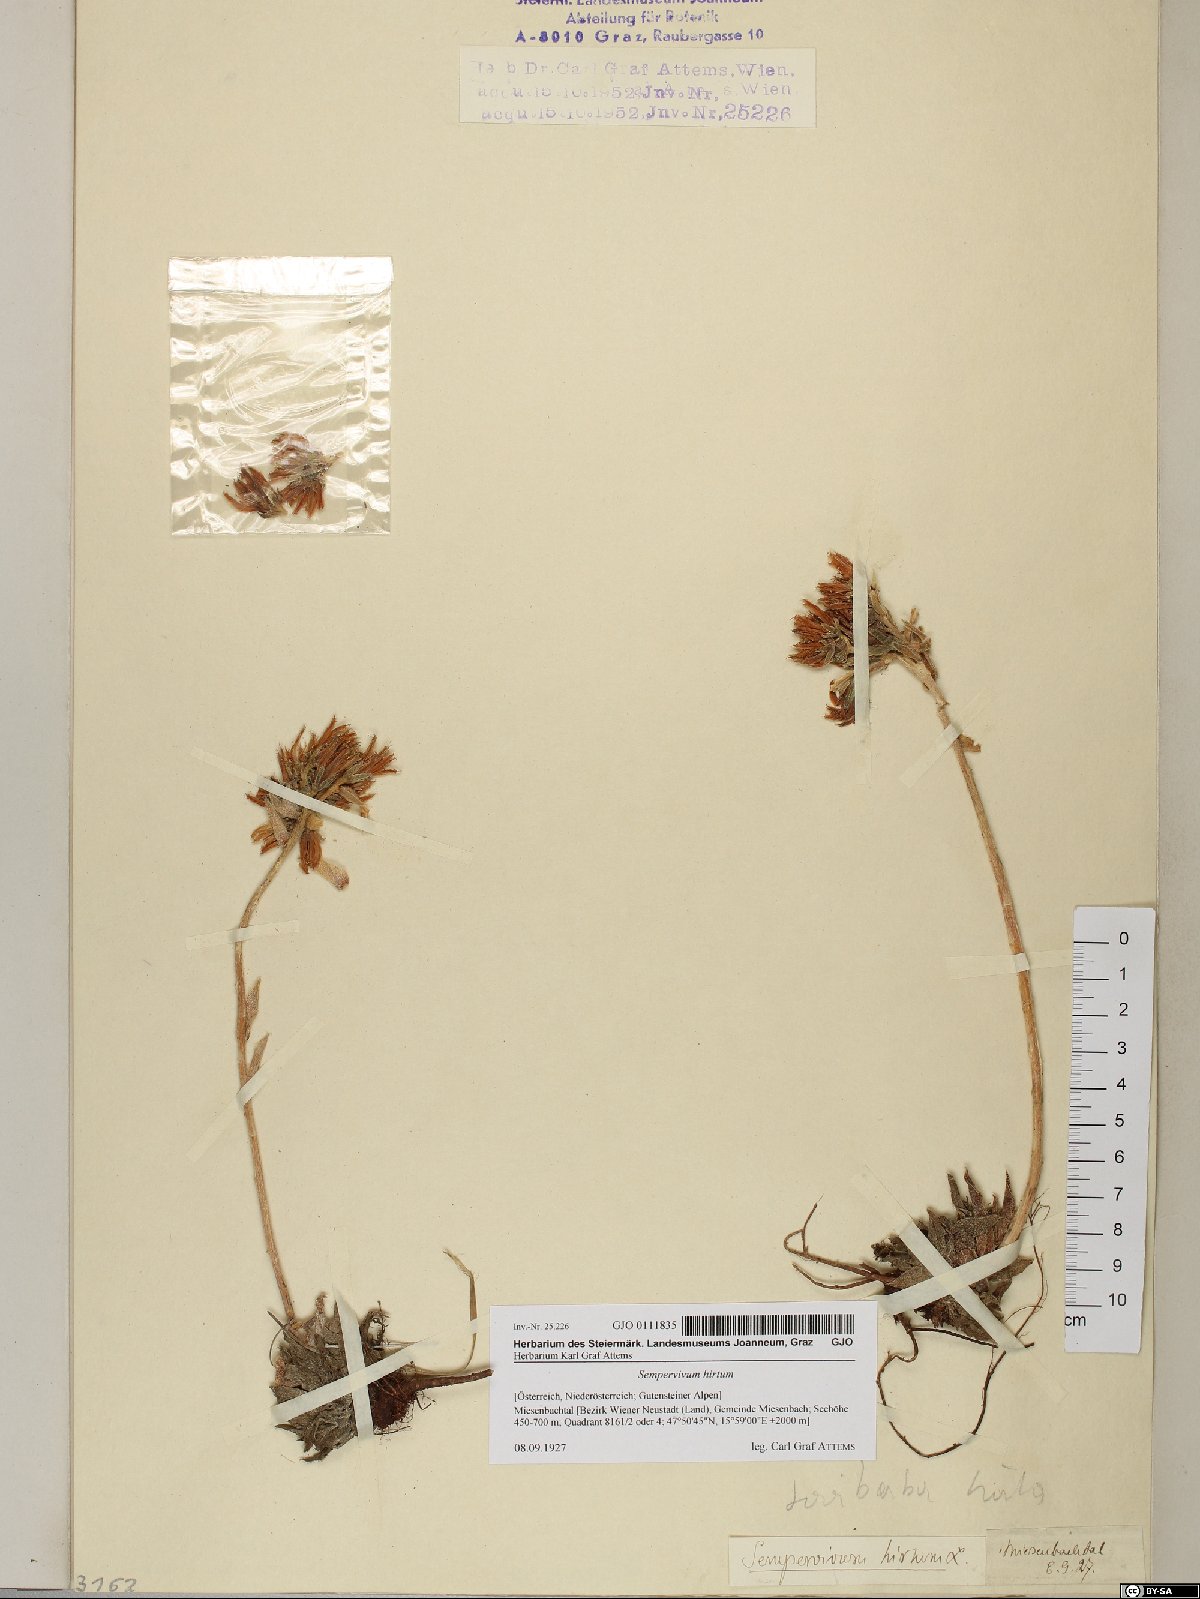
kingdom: Plantae
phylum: Tracheophyta
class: Magnoliopsida
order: Saxifragales
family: Crassulaceae
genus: Sempervivum
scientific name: Sempervivum globiferum
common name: Rolling hen-and-chicks
